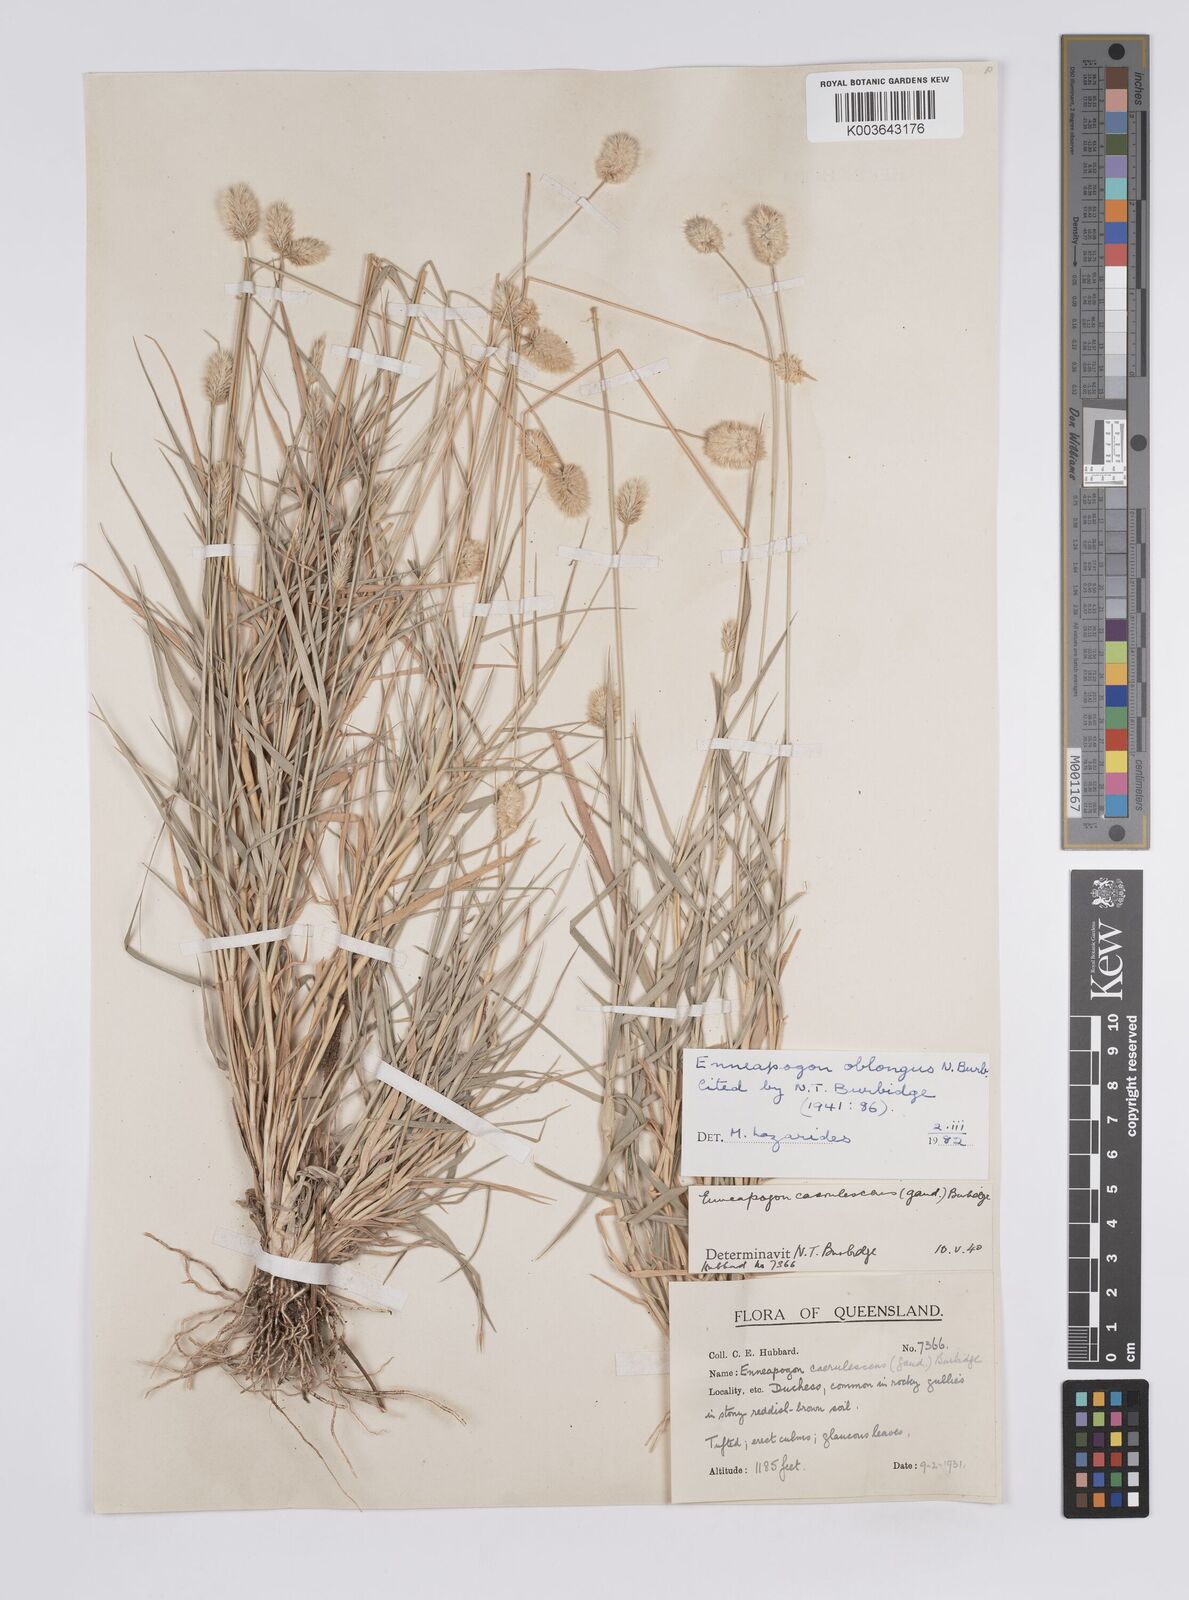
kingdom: Plantae
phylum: Tracheophyta
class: Liliopsida
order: Poales
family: Poaceae
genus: Enneapogon
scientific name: Enneapogon lindleyanus
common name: Conetop nineawn
